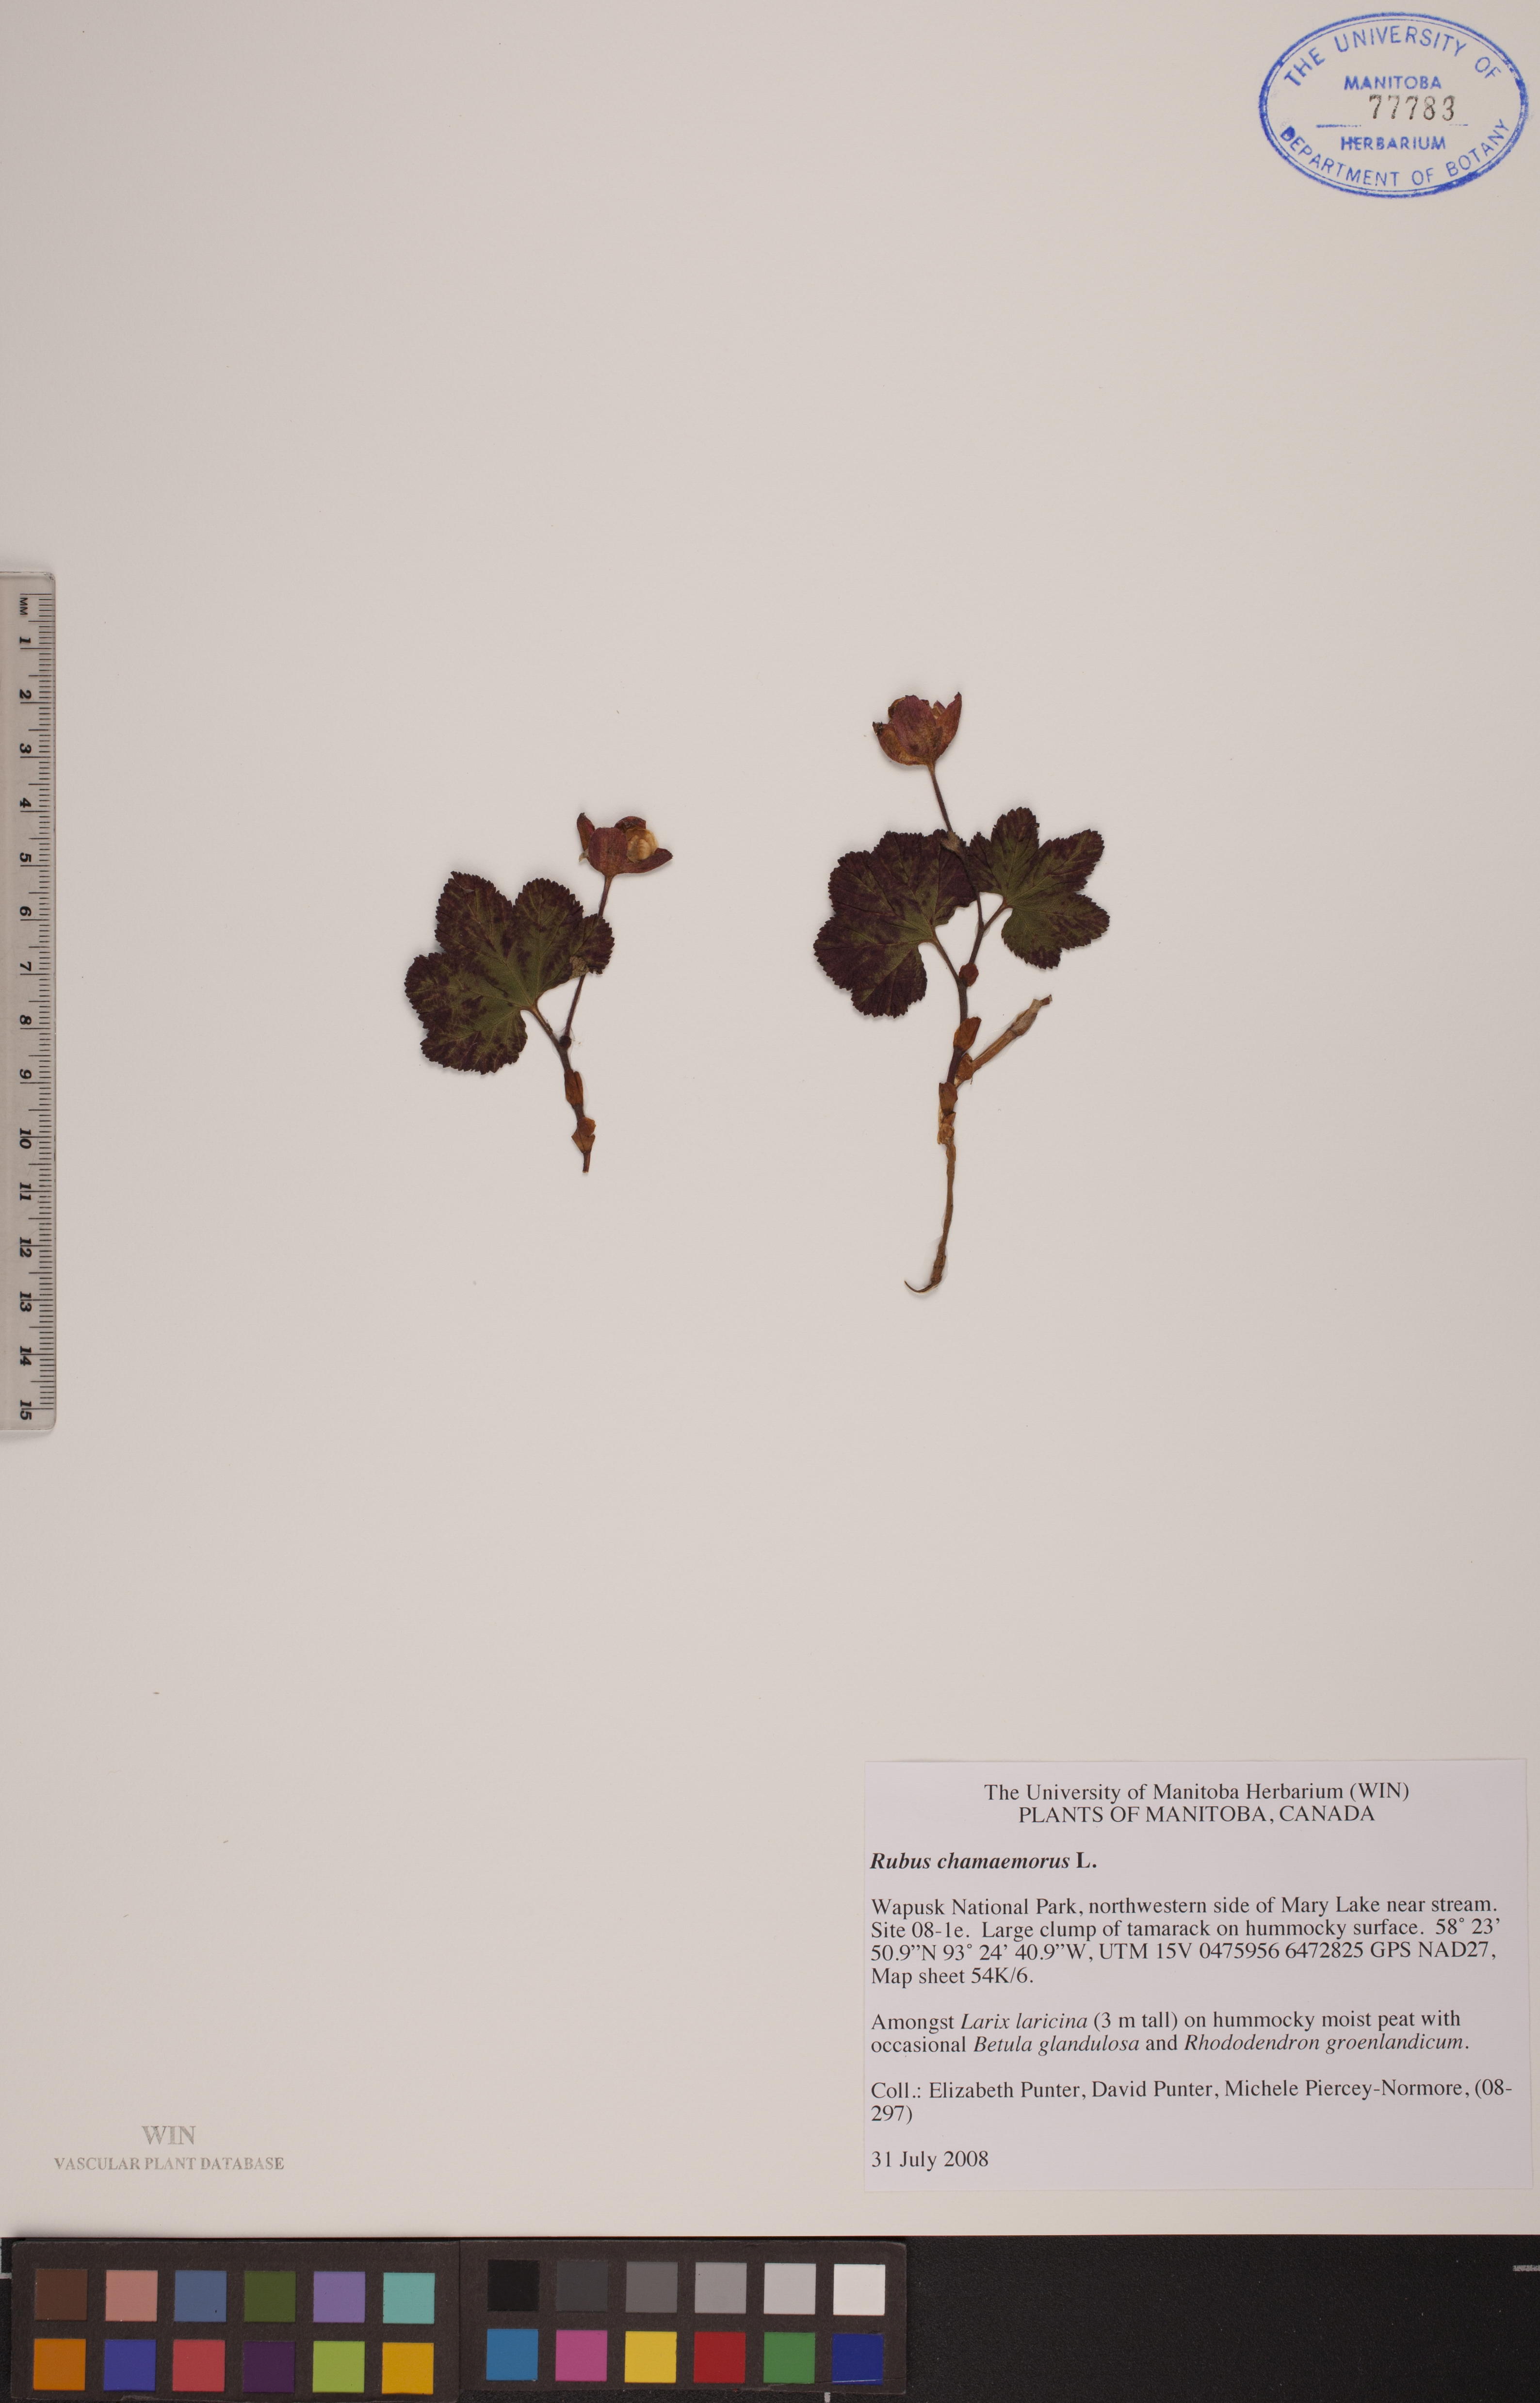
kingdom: Plantae
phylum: Tracheophyta
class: Magnoliopsida
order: Rosales
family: Rosaceae
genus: Rubus
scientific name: Rubus chamaemorus
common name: Cloudberry
